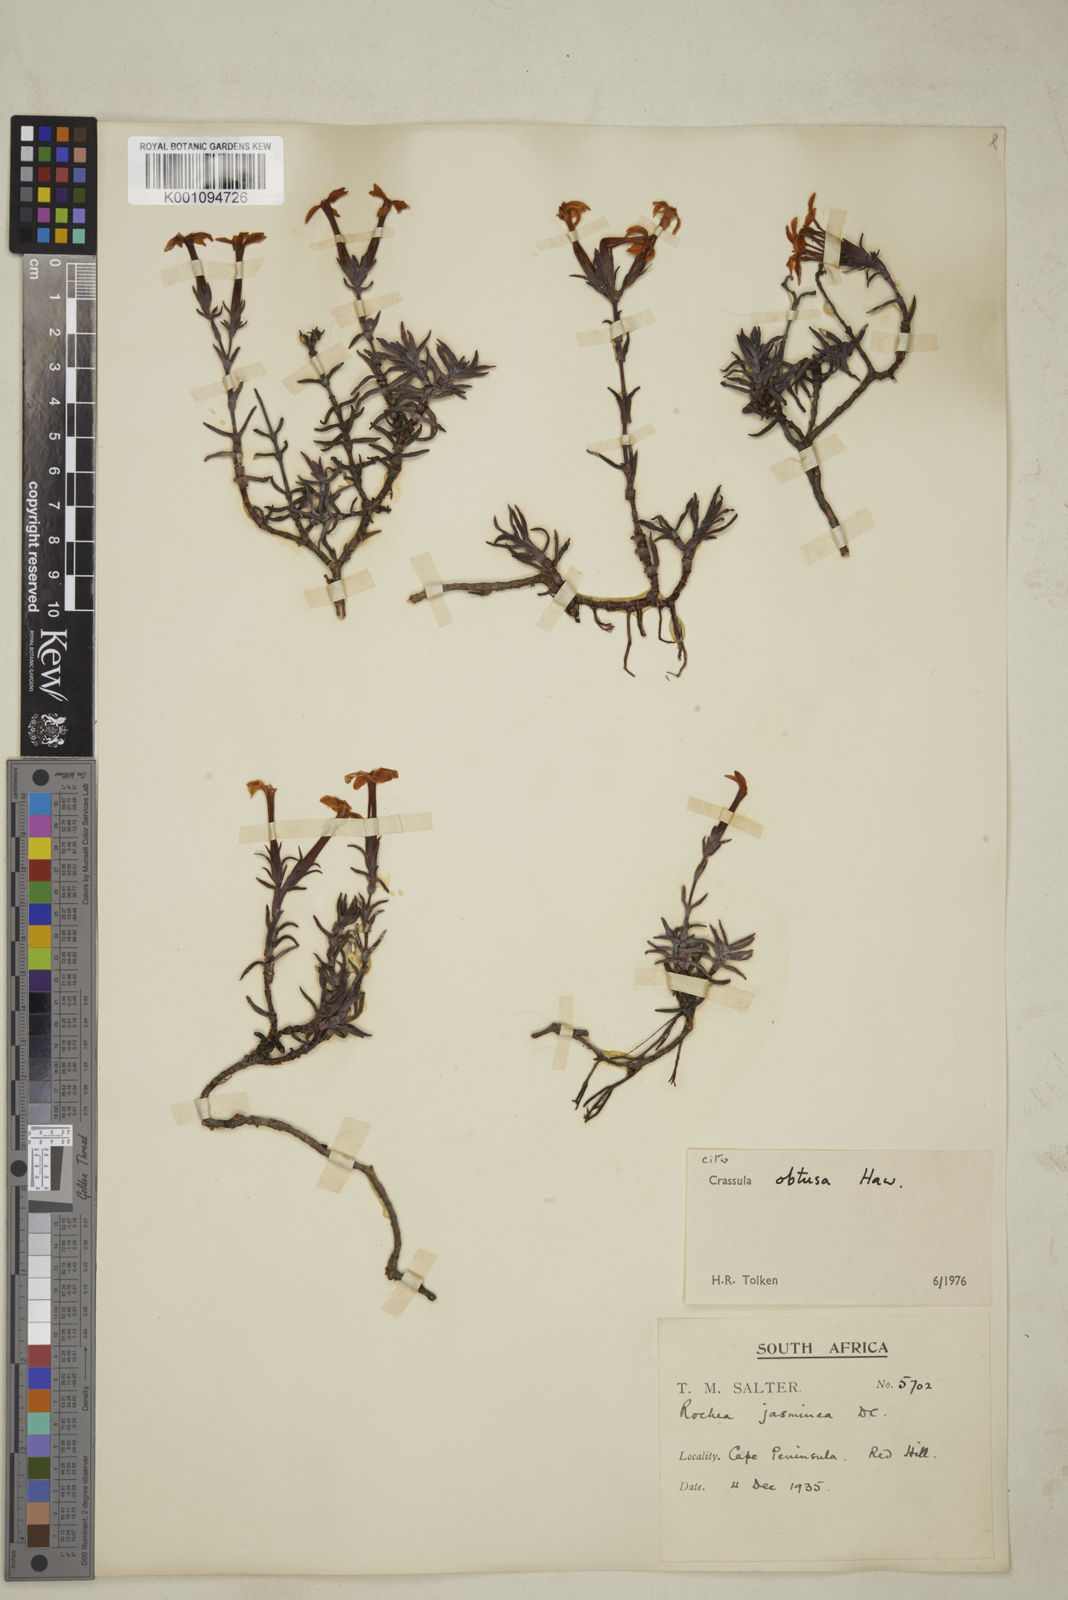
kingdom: Plantae
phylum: Tracheophyta
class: Magnoliopsida
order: Saxifragales
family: Crassulaceae
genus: Crassula
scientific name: Crassula obtusa
